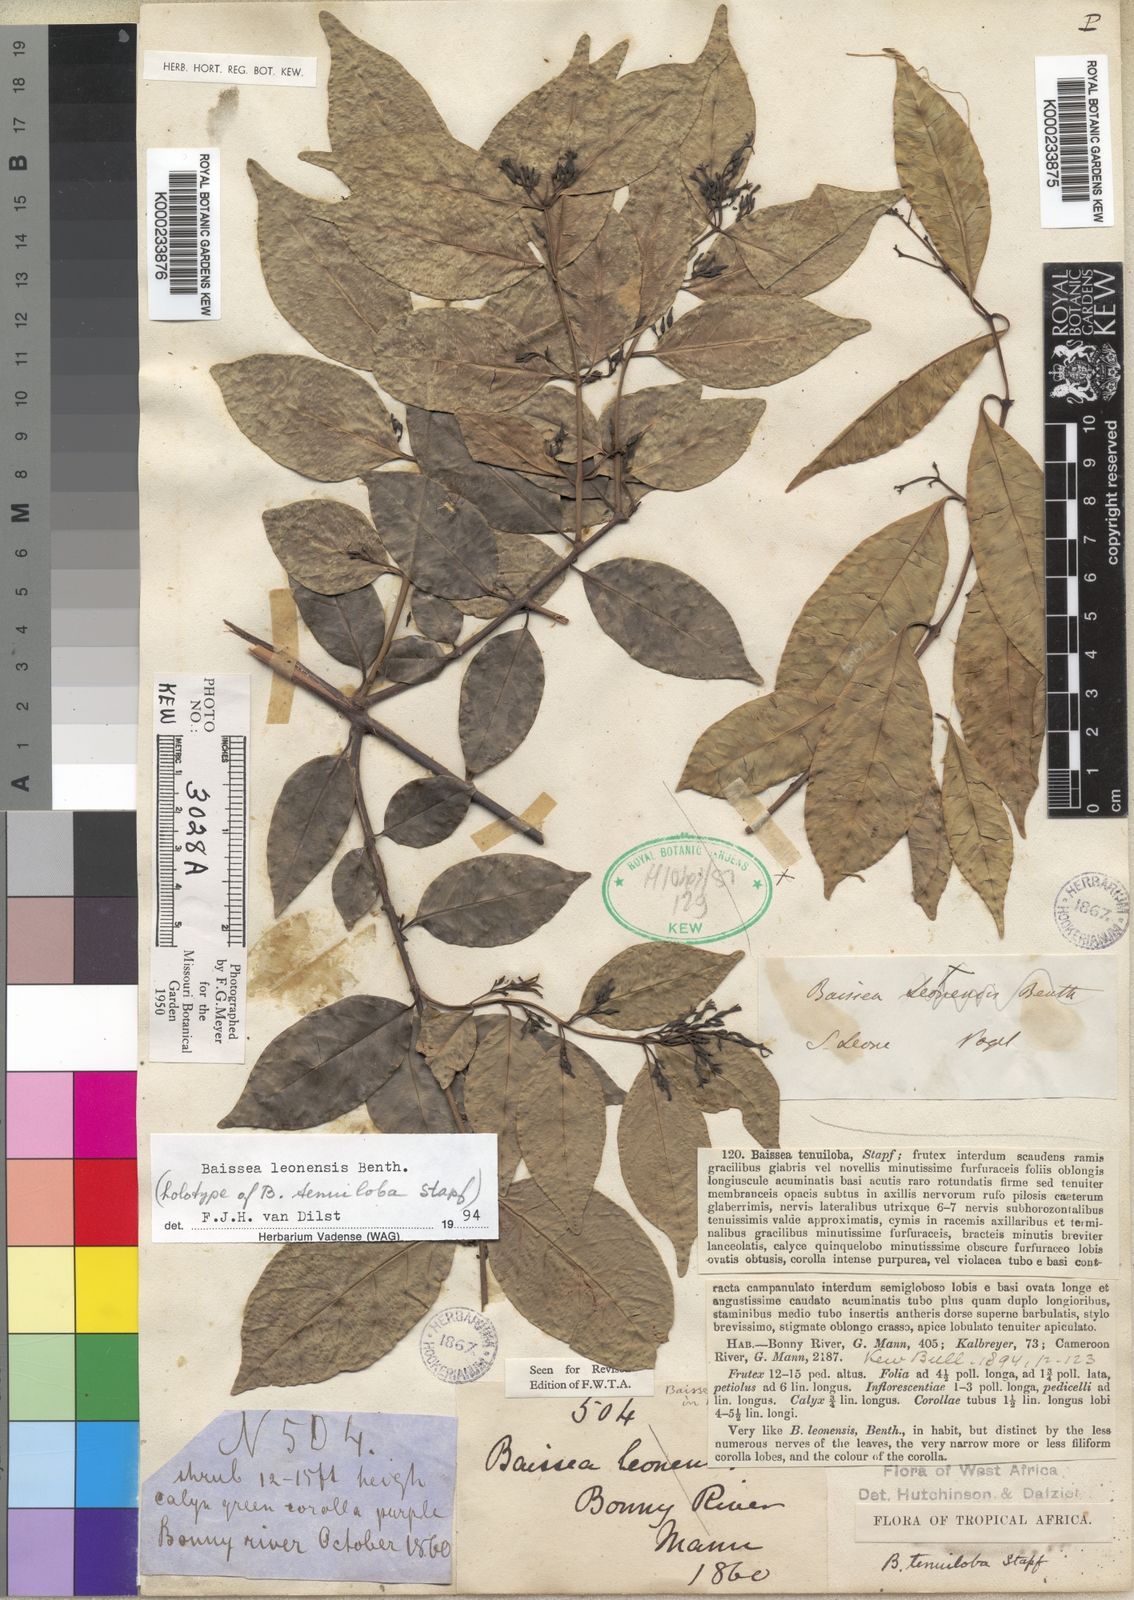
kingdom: Plantae
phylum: Tracheophyta
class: Magnoliopsida
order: Gentianales
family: Apocynaceae
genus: Baissea
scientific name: Baissea leonensis
